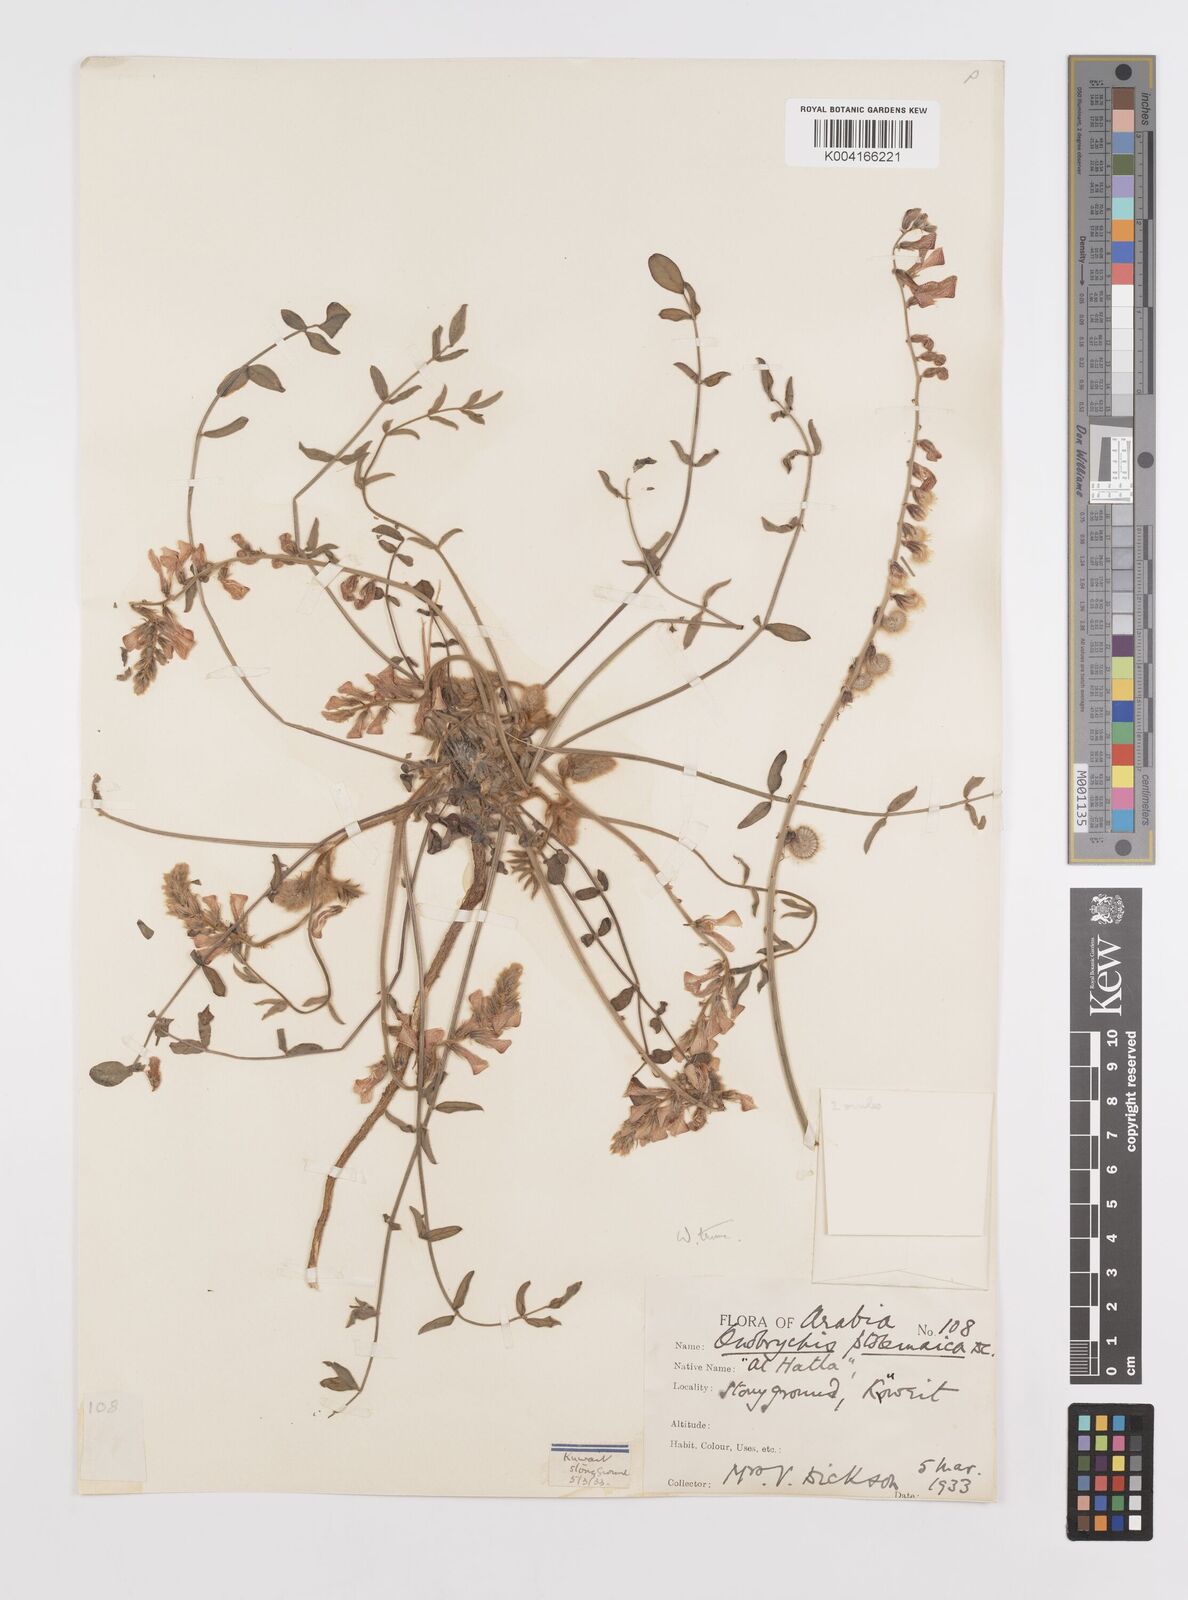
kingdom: Plantae
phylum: Tracheophyta
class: Magnoliopsida
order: Fabales
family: Fabaceae
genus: Onobrychis
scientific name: Onobrychis ptolemaica
